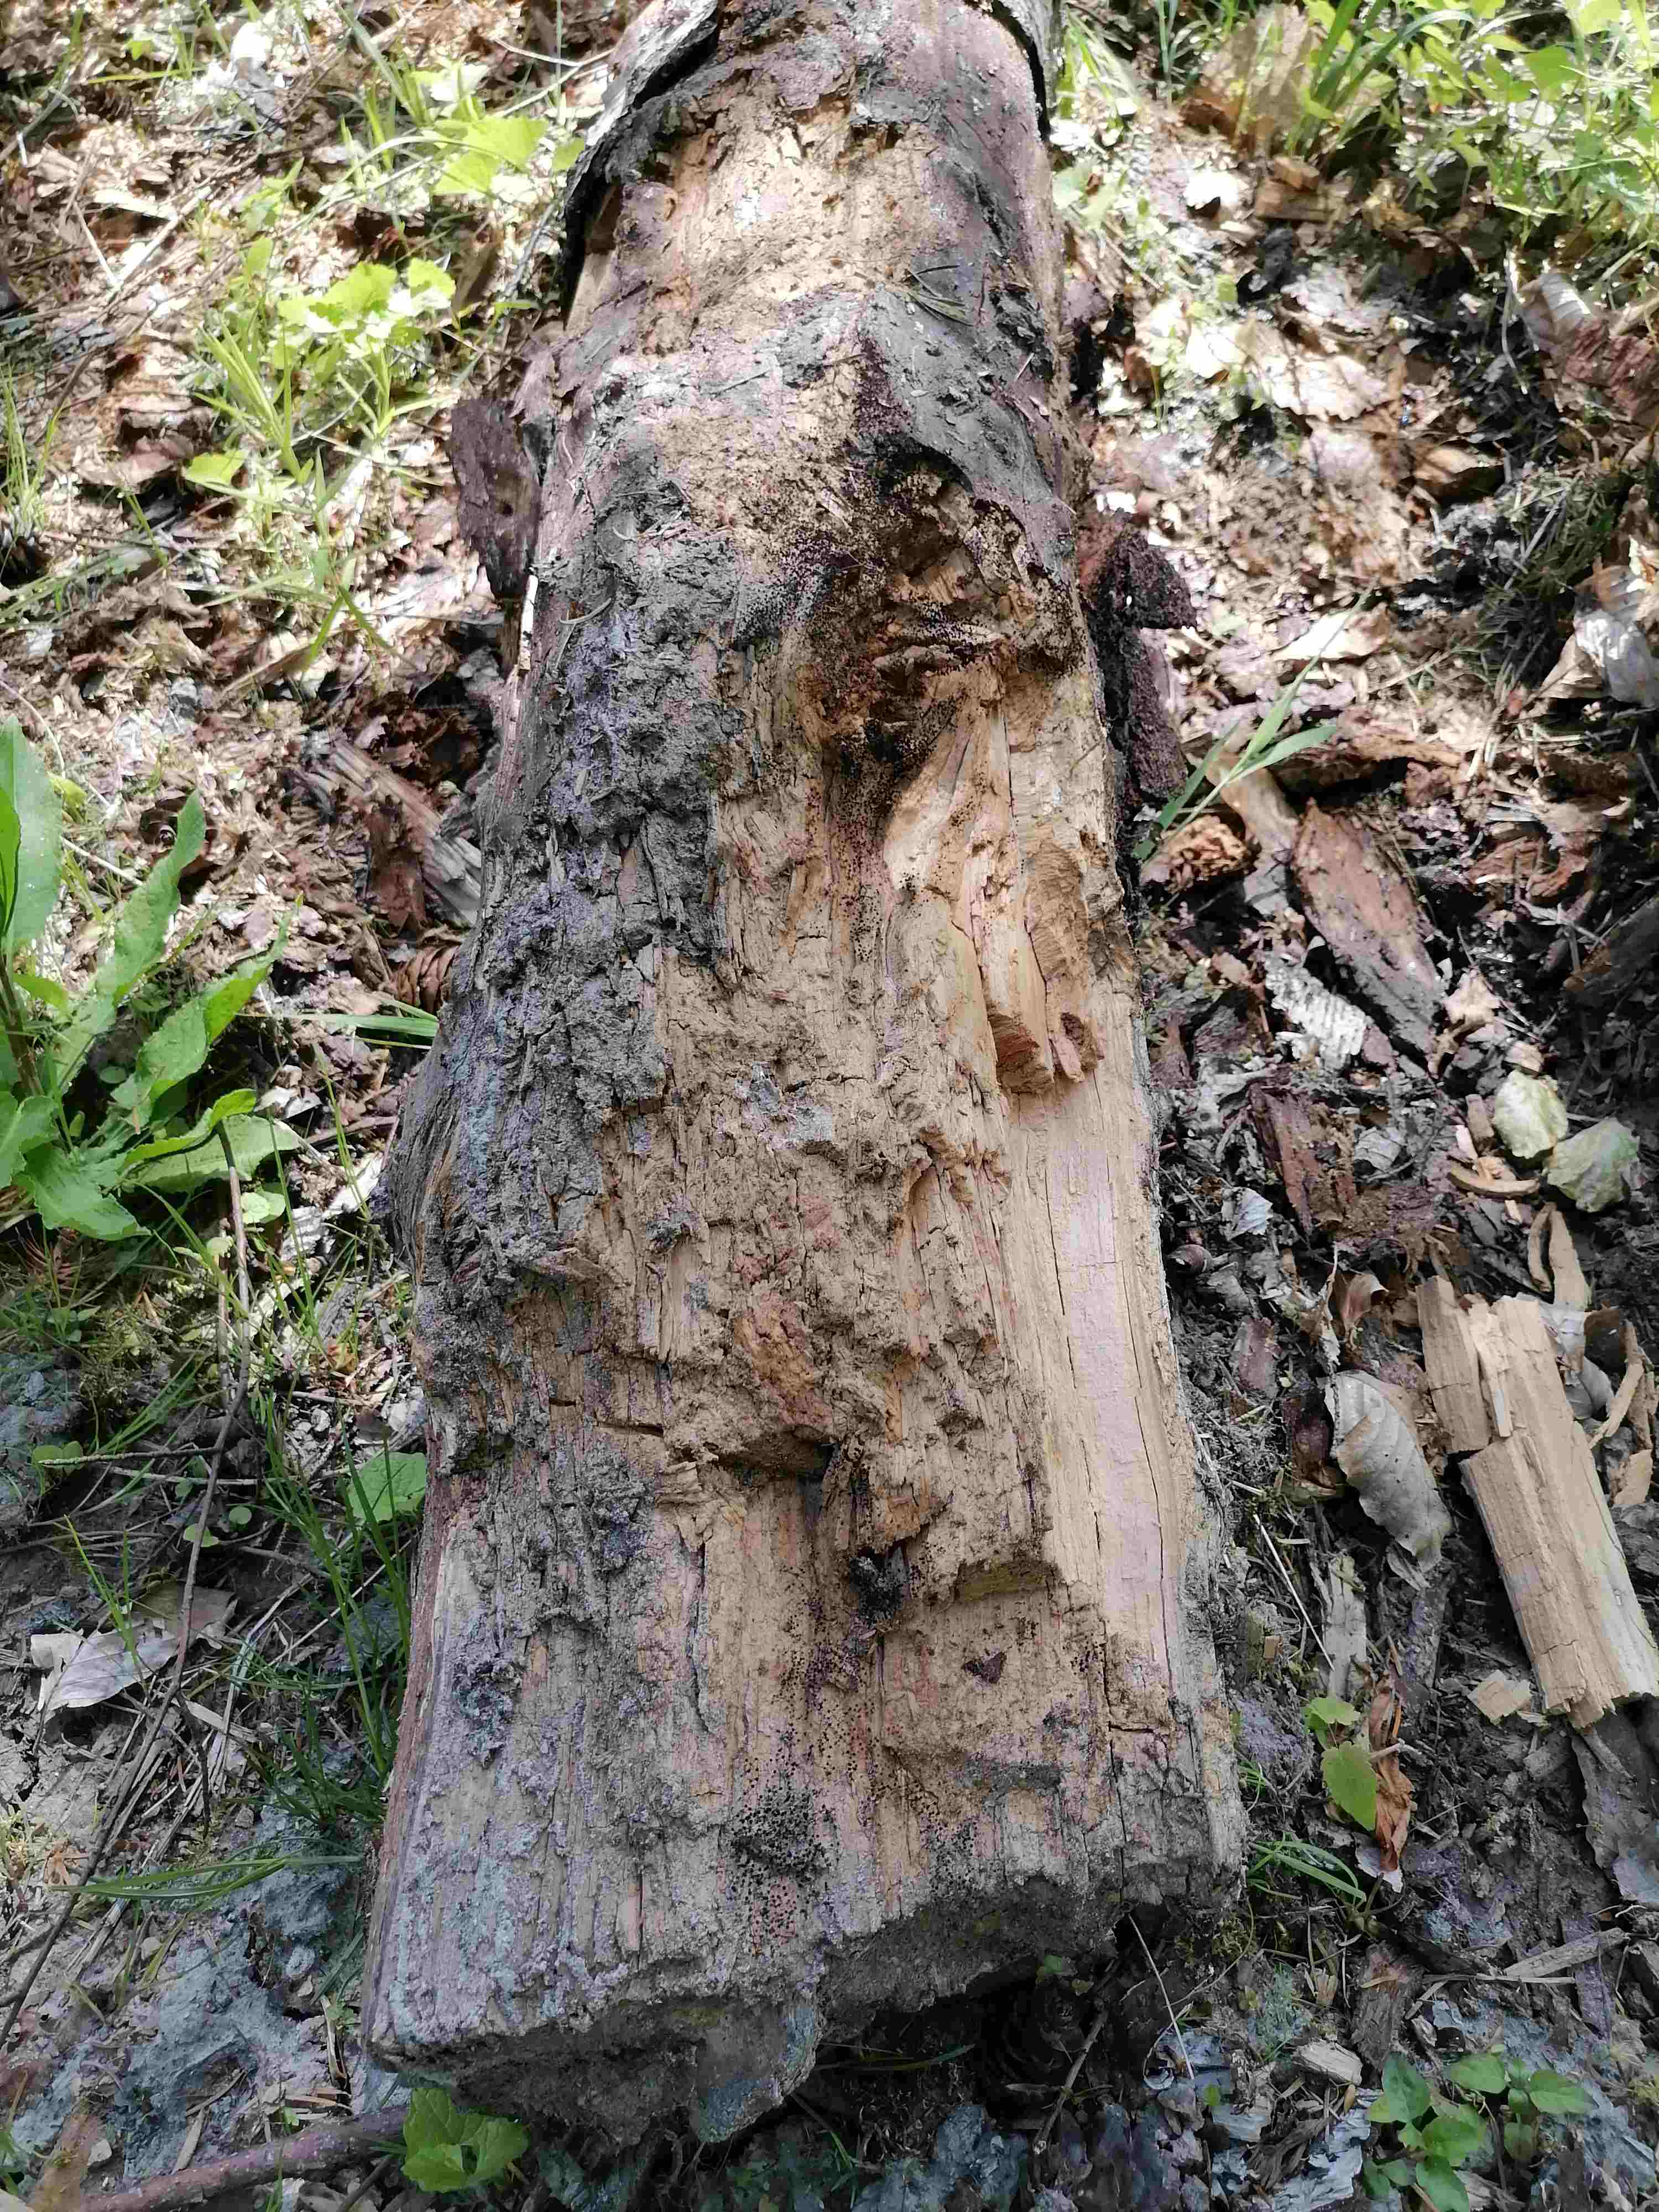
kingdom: Protozoa
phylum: Mycetozoa
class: Myxomycetes
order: Stemonitidales
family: Stemonitidaceae
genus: Comatricha
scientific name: Comatricha nigra
